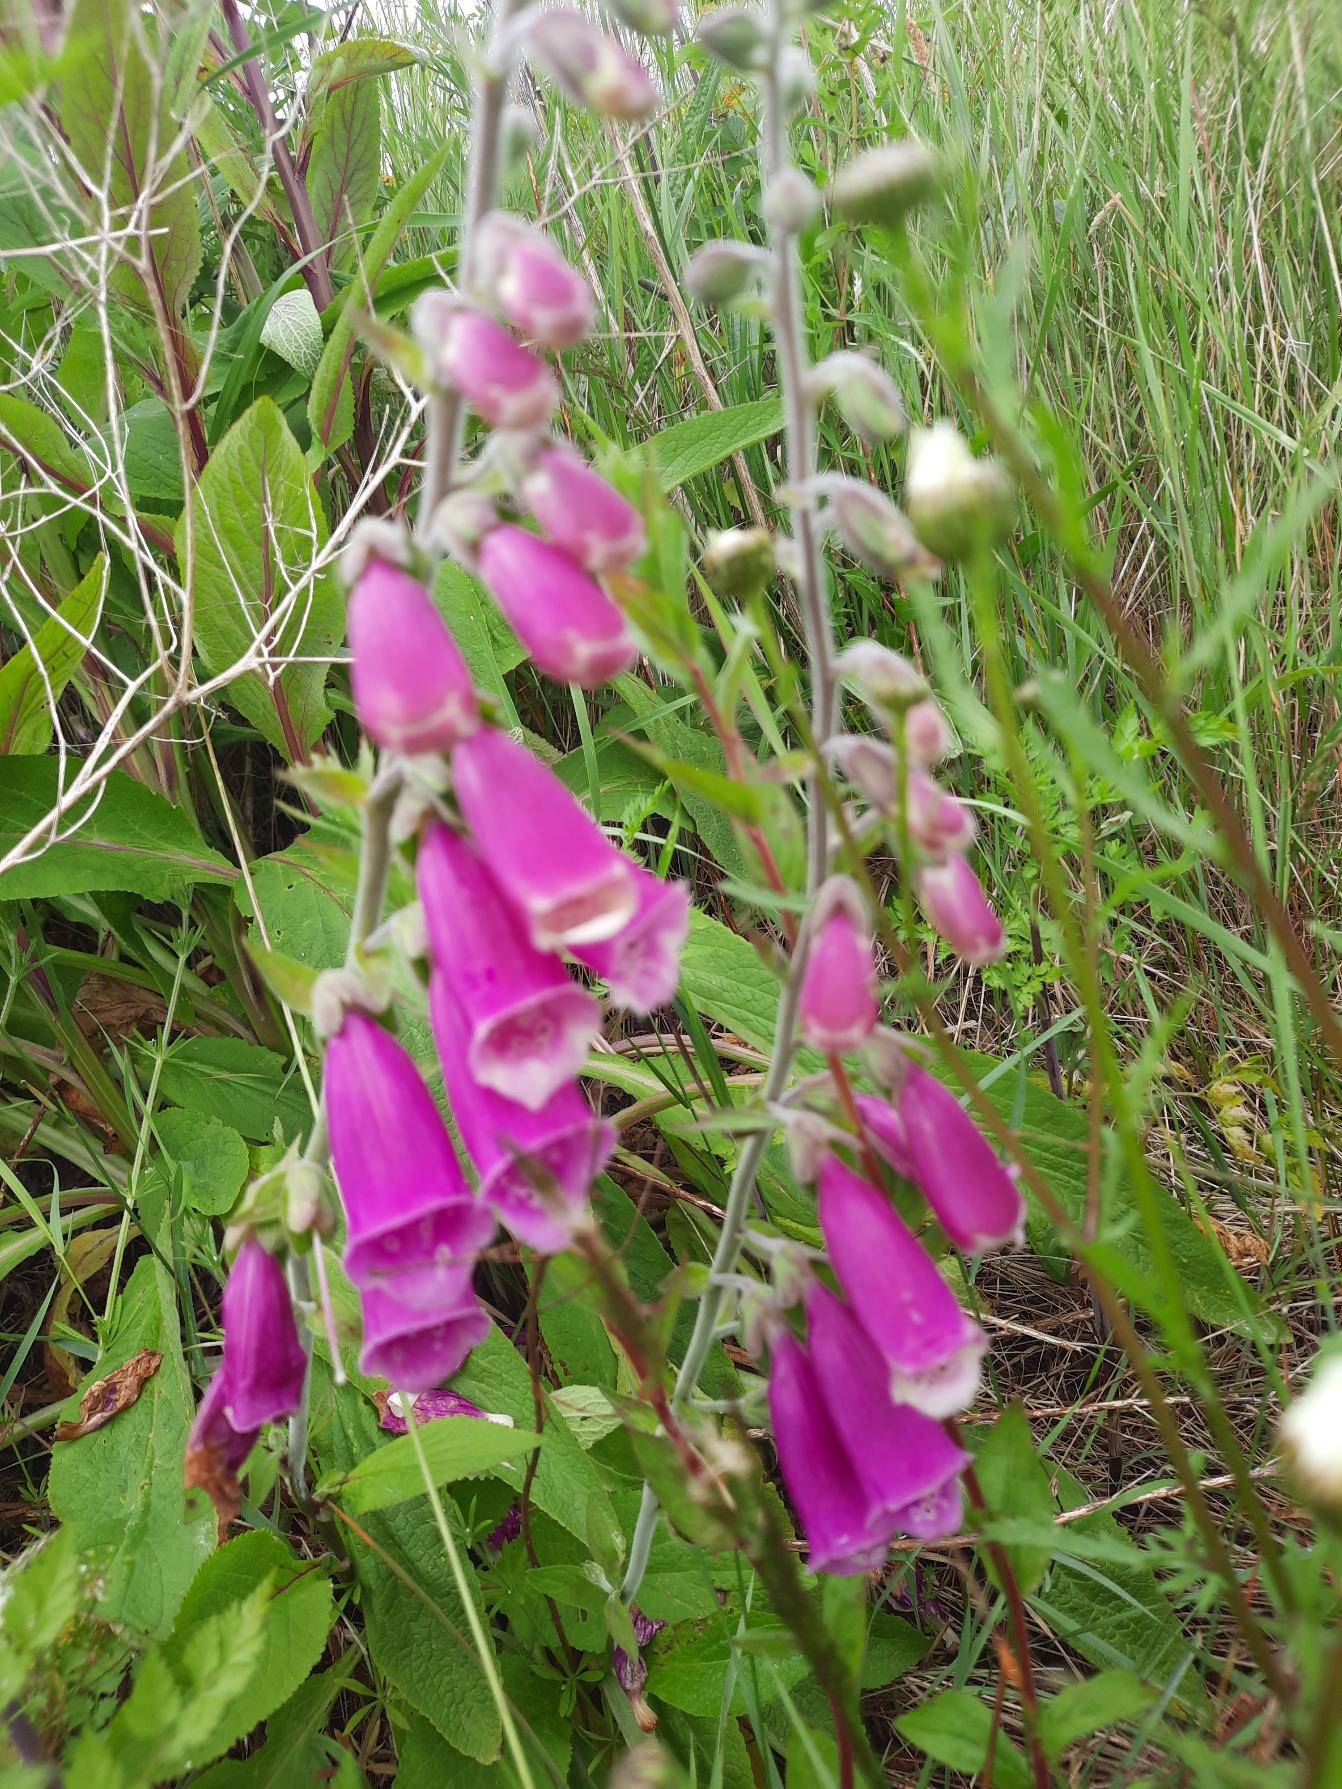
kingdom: Plantae
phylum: Tracheophyta
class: Magnoliopsida
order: Lamiales
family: Plantaginaceae
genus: Digitalis
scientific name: Digitalis purpurea
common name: Almindelig fingerbøl
